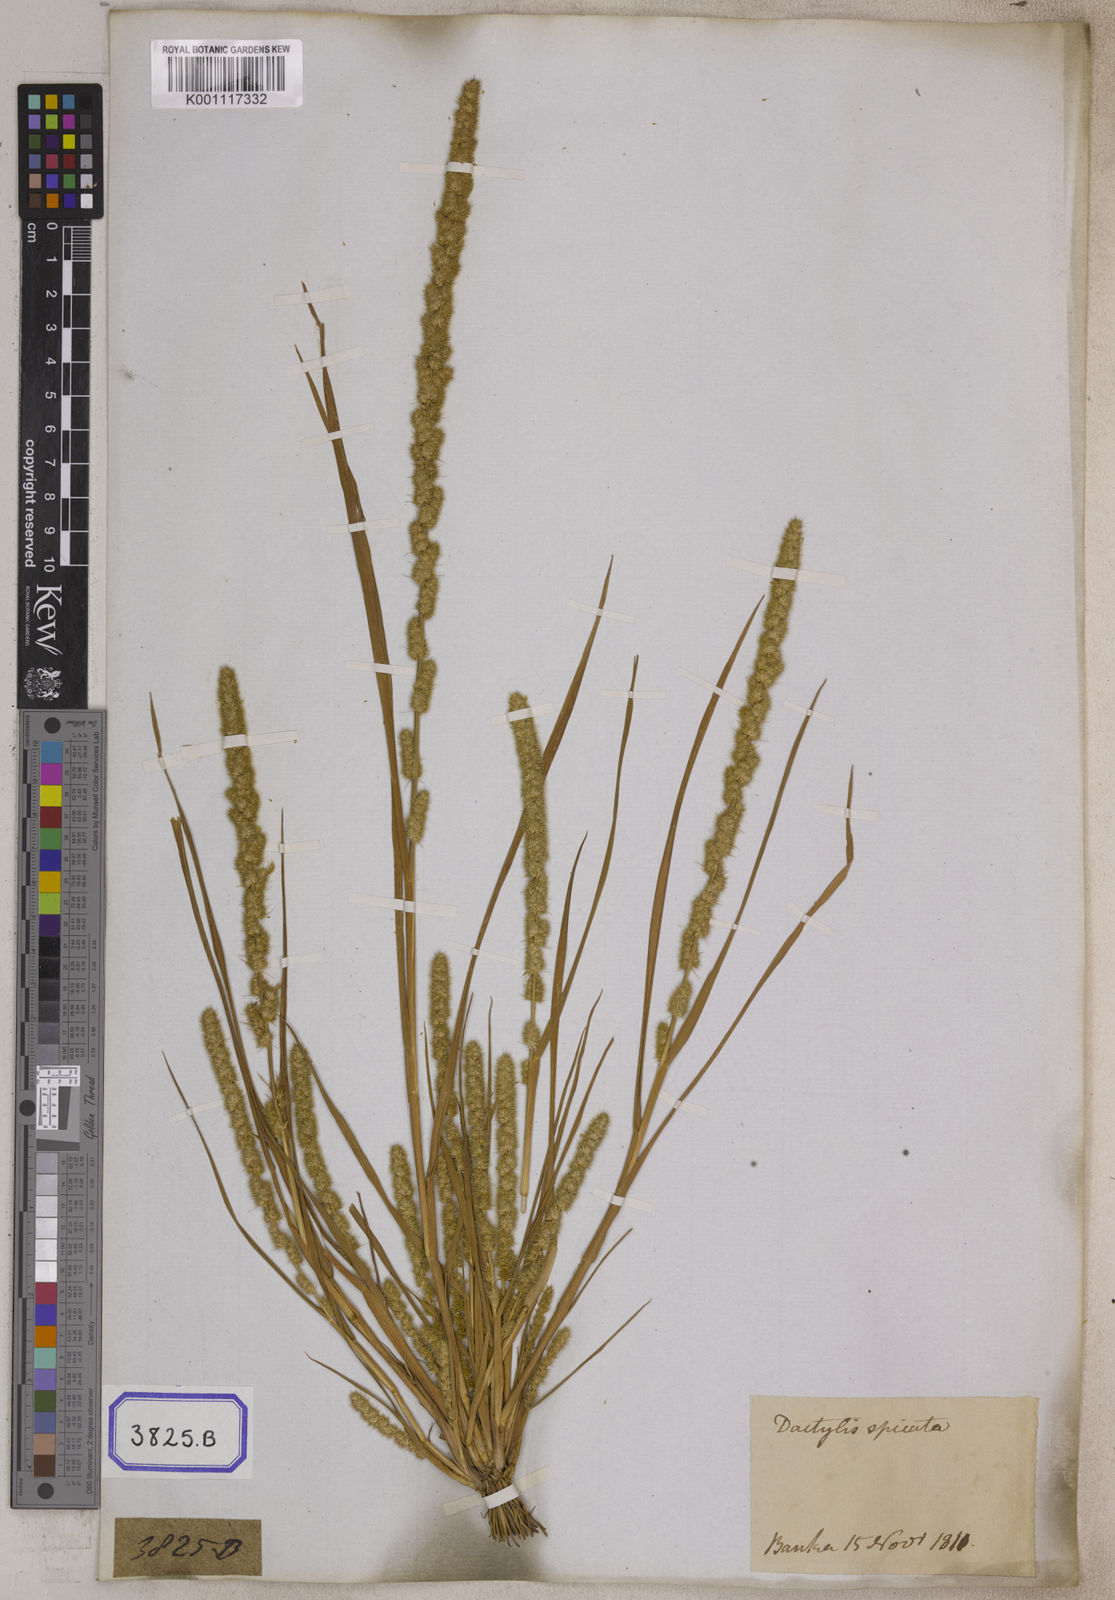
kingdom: Plantae
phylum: Tracheophyta
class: Liliopsida
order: Poales
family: Poaceae
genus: Elytrophorus
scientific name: Elytrophorus spicatus
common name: Spike grass
